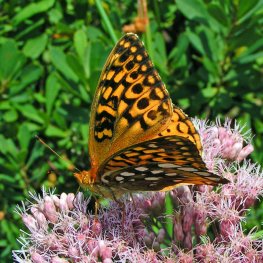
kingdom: Animalia
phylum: Arthropoda
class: Insecta
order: Lepidoptera
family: Nymphalidae
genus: Speyeria
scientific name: Speyeria cybele
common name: Great Spangled Fritillary
